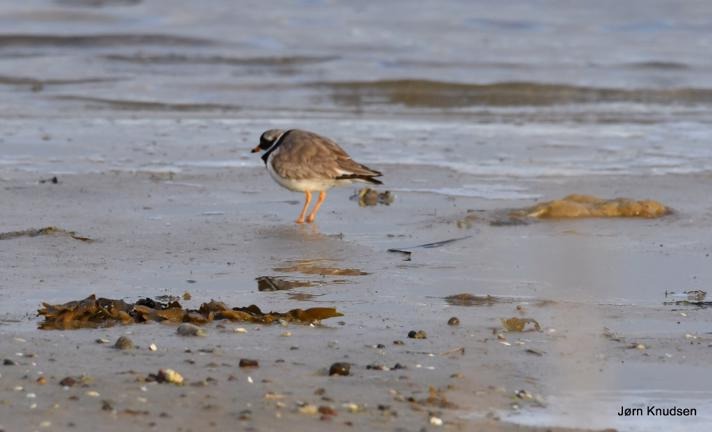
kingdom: Animalia
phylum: Chordata
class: Aves
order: Charadriiformes
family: Charadriidae
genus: Charadrius
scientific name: Charadrius hiaticula
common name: Stor præstekrave
